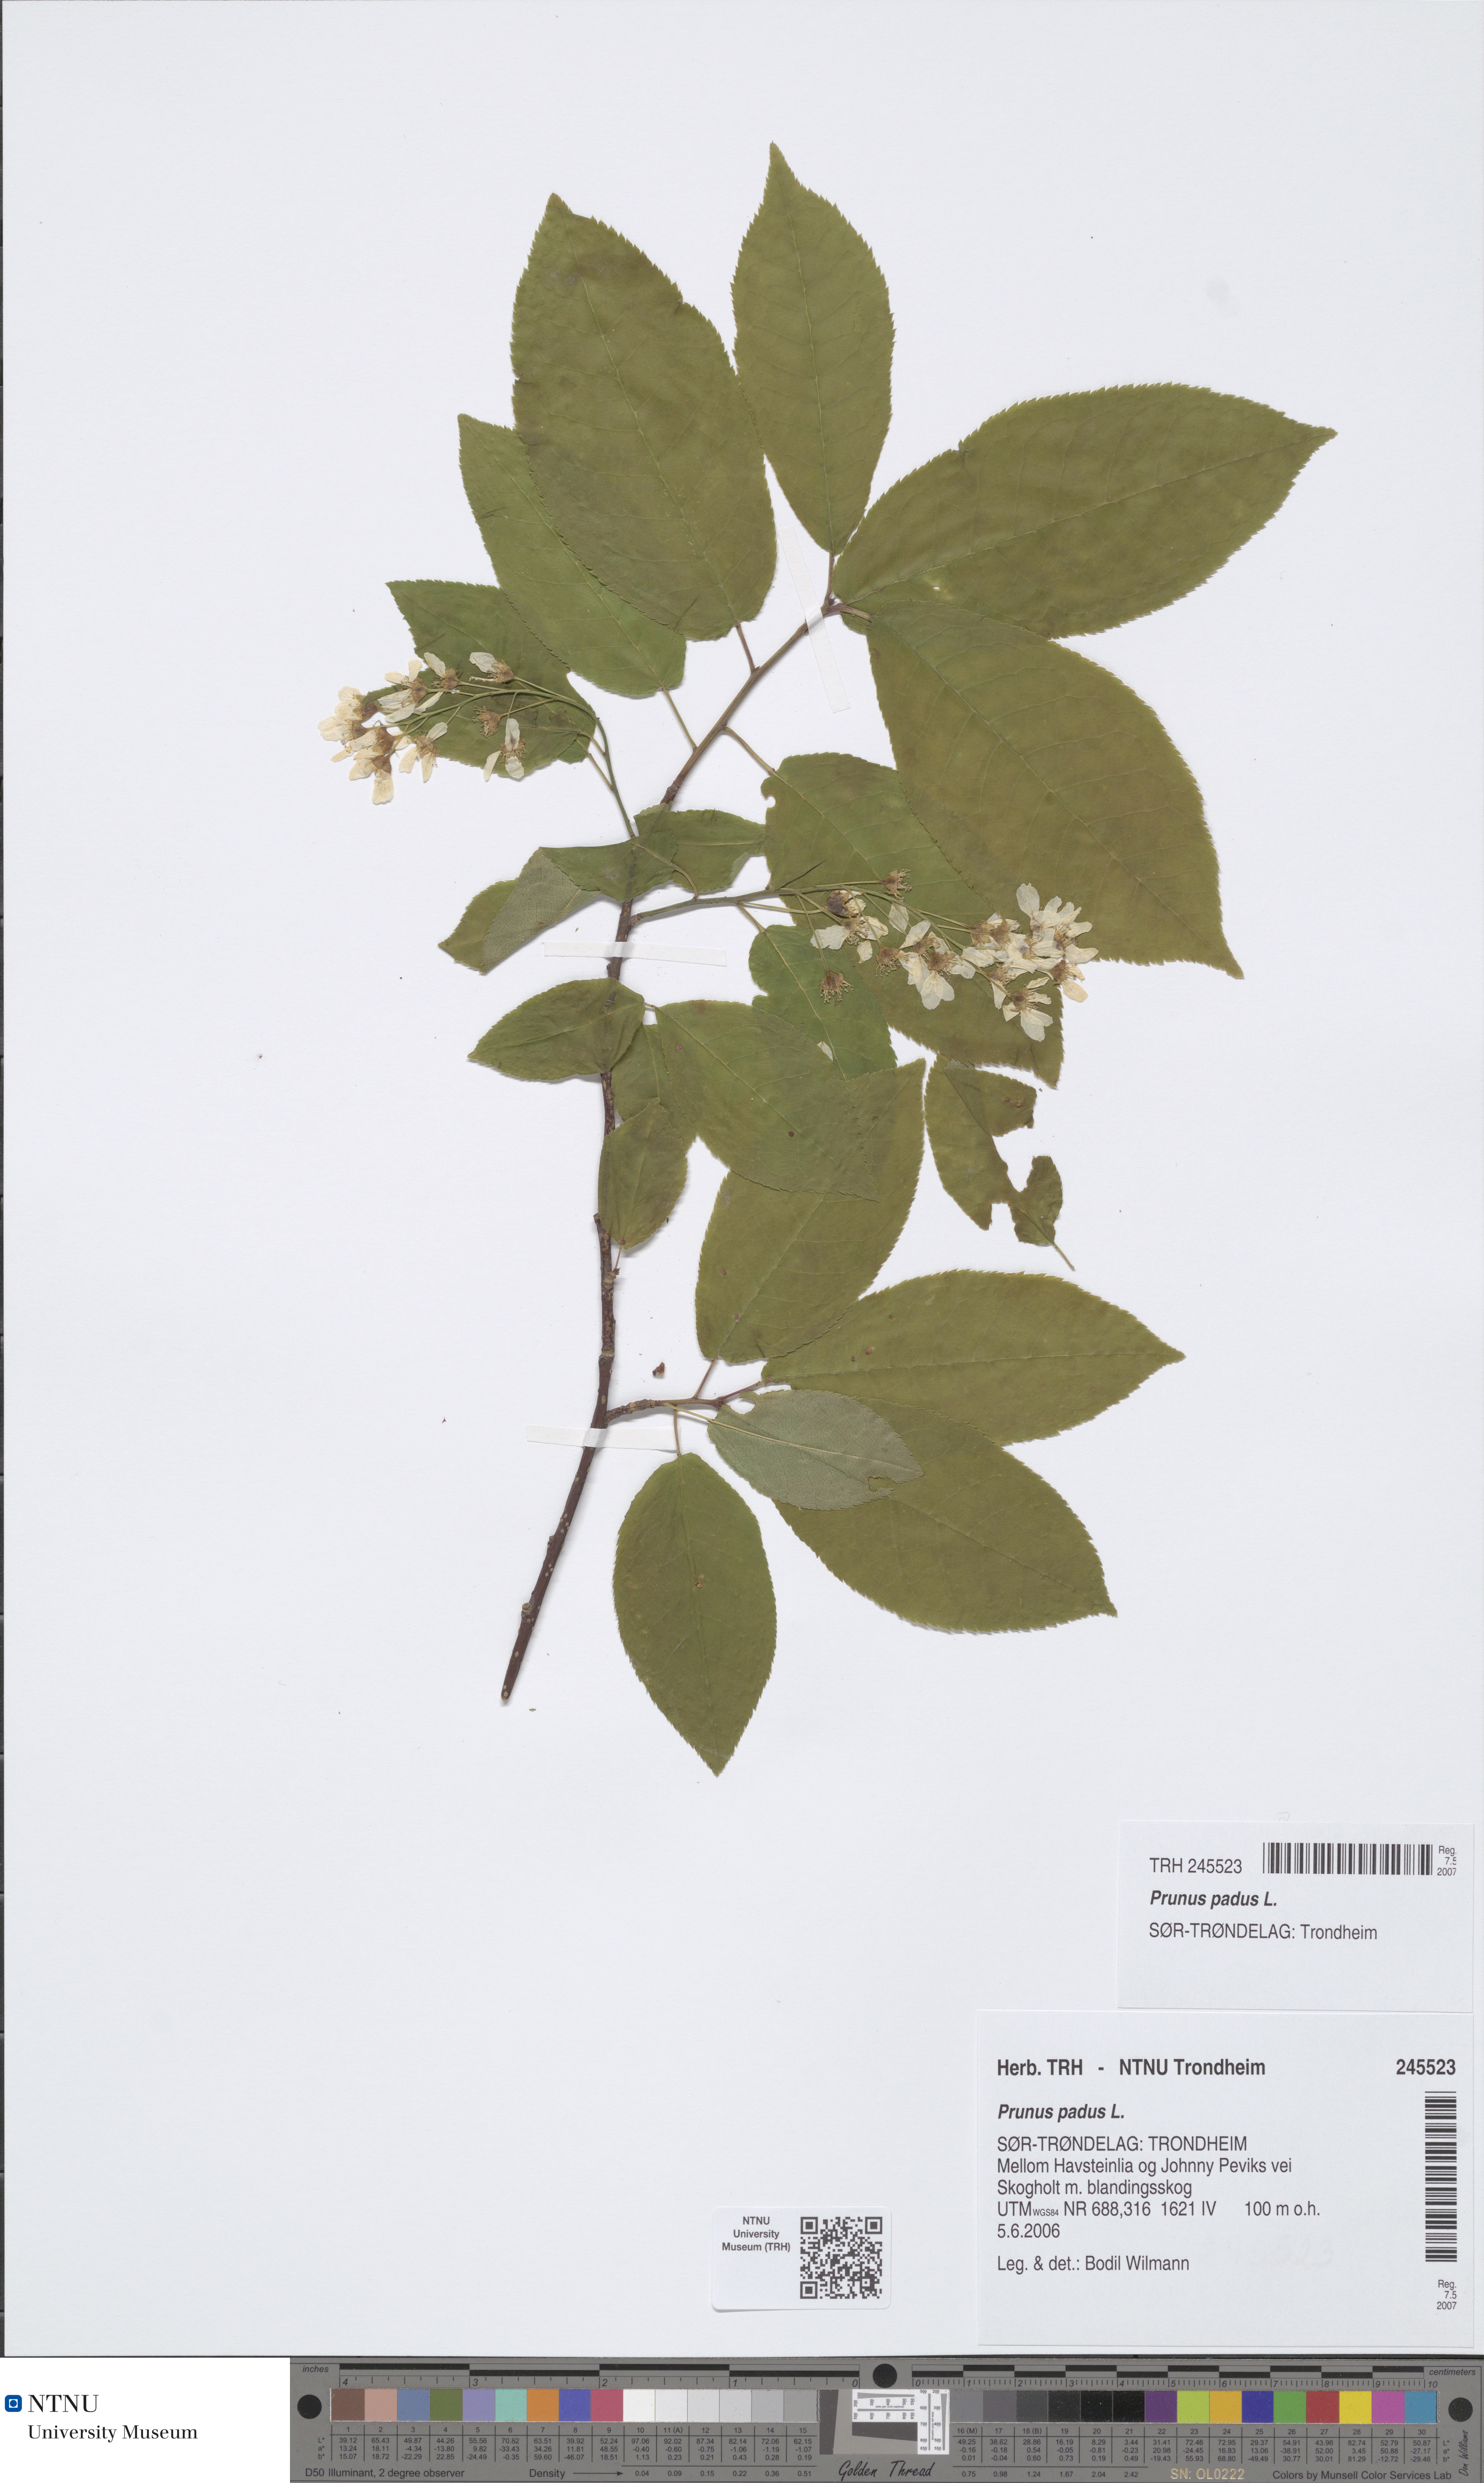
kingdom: Plantae
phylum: Tracheophyta
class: Magnoliopsida
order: Rosales
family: Rosaceae
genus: Prunus
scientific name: Prunus padus
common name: Bird cherry
